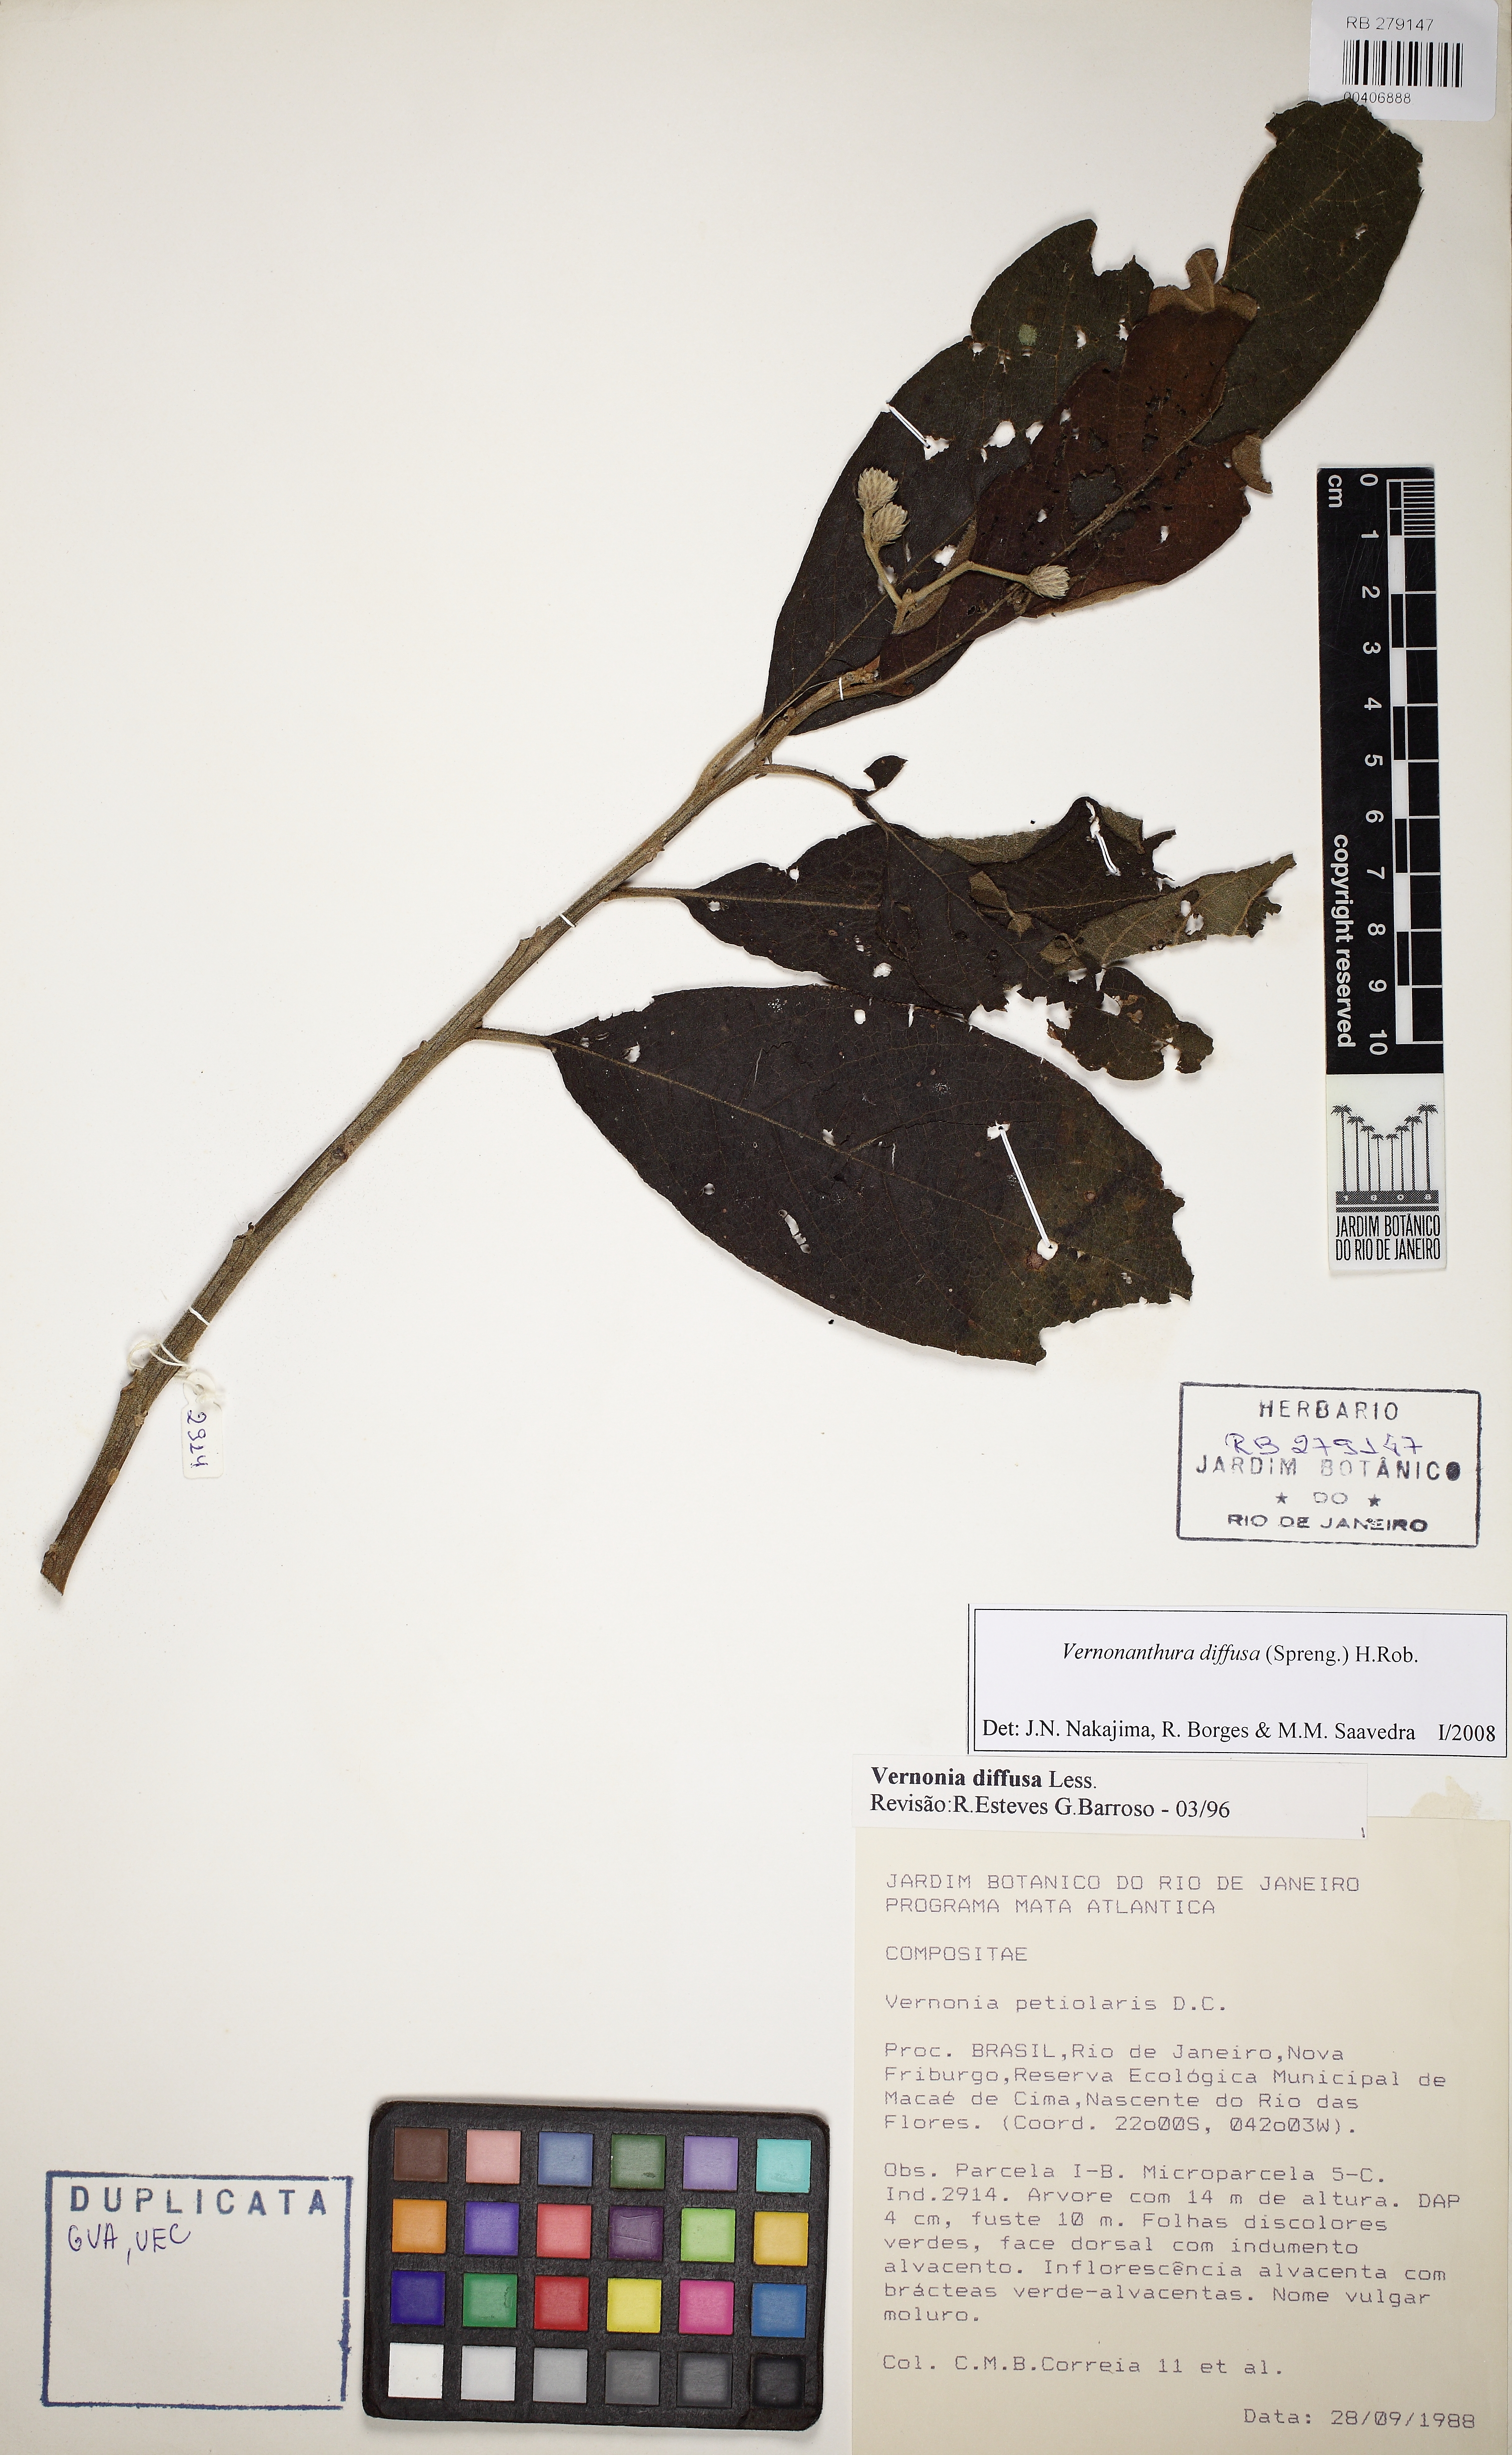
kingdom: Plantae
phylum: Tracheophyta
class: Magnoliopsida
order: Asterales
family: Asteraceae
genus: Vernonanthura
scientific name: Vernonanthura divaricata
